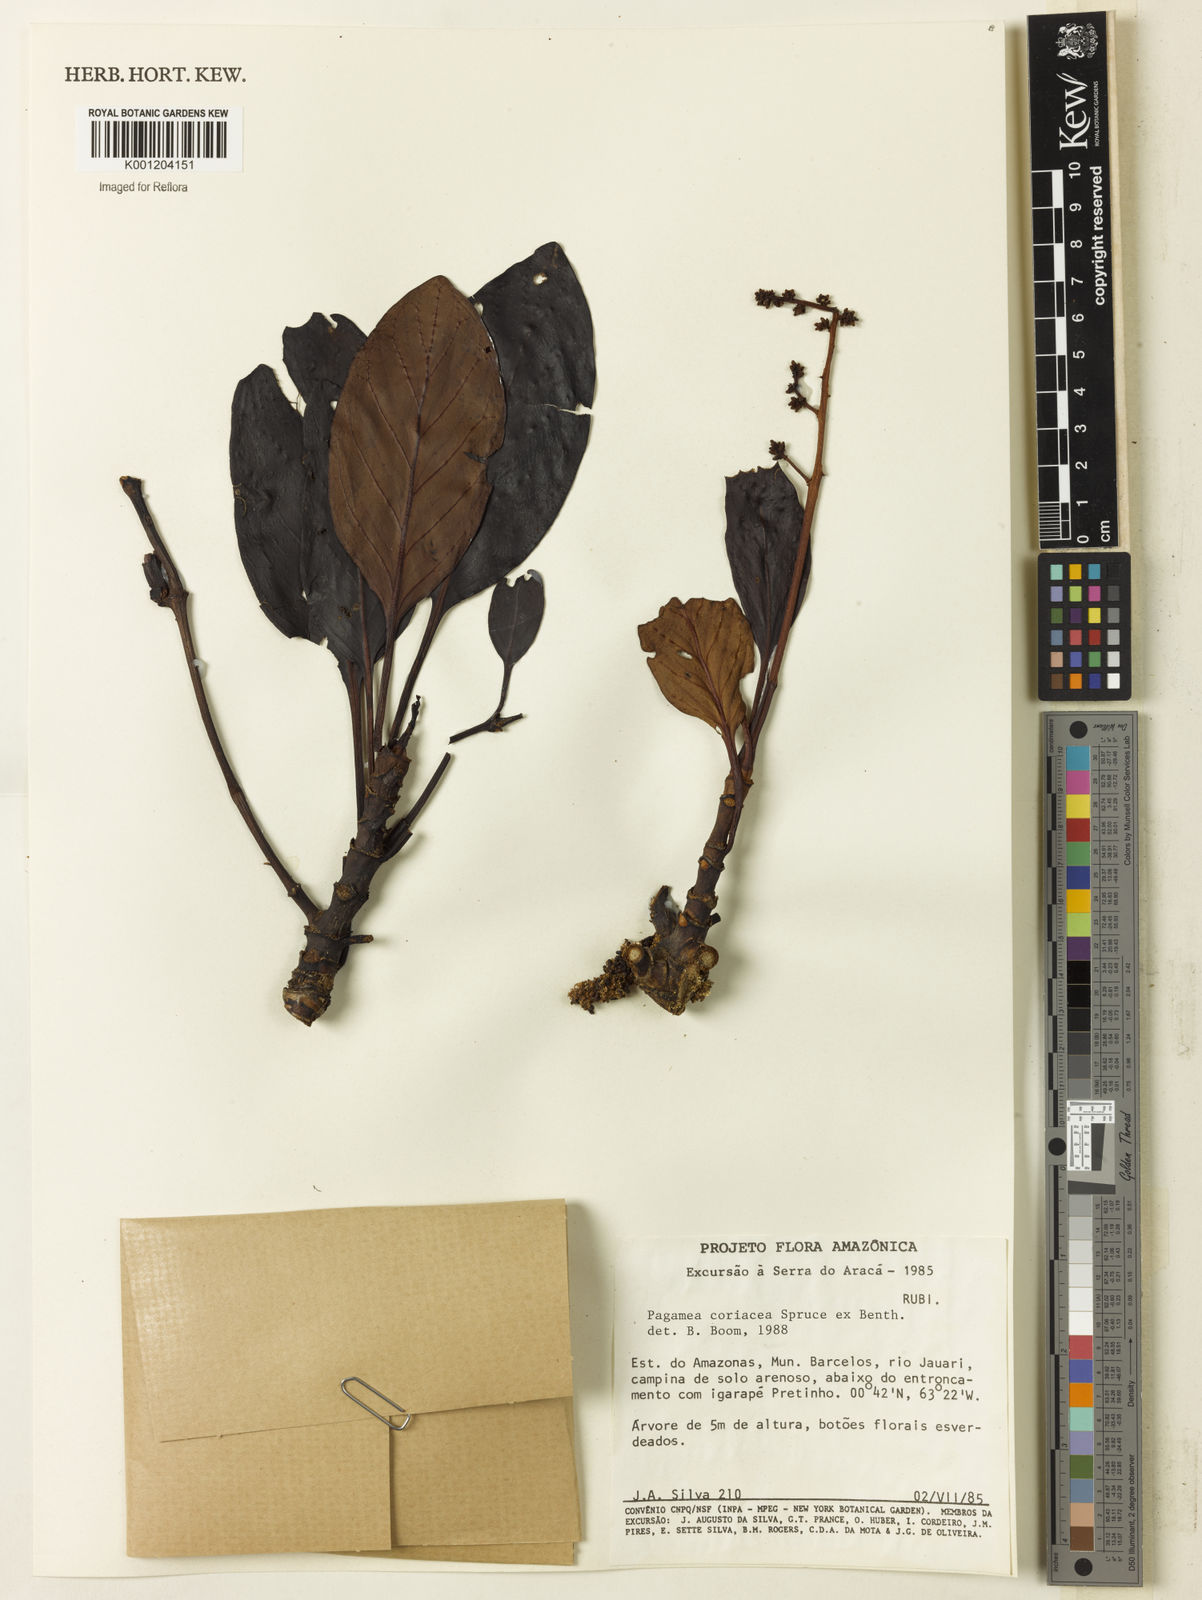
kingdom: Plantae
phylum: Tracheophyta
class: Magnoliopsida
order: Gentianales
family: Rubiaceae
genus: Pagamea
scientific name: Pagamea coriacea
